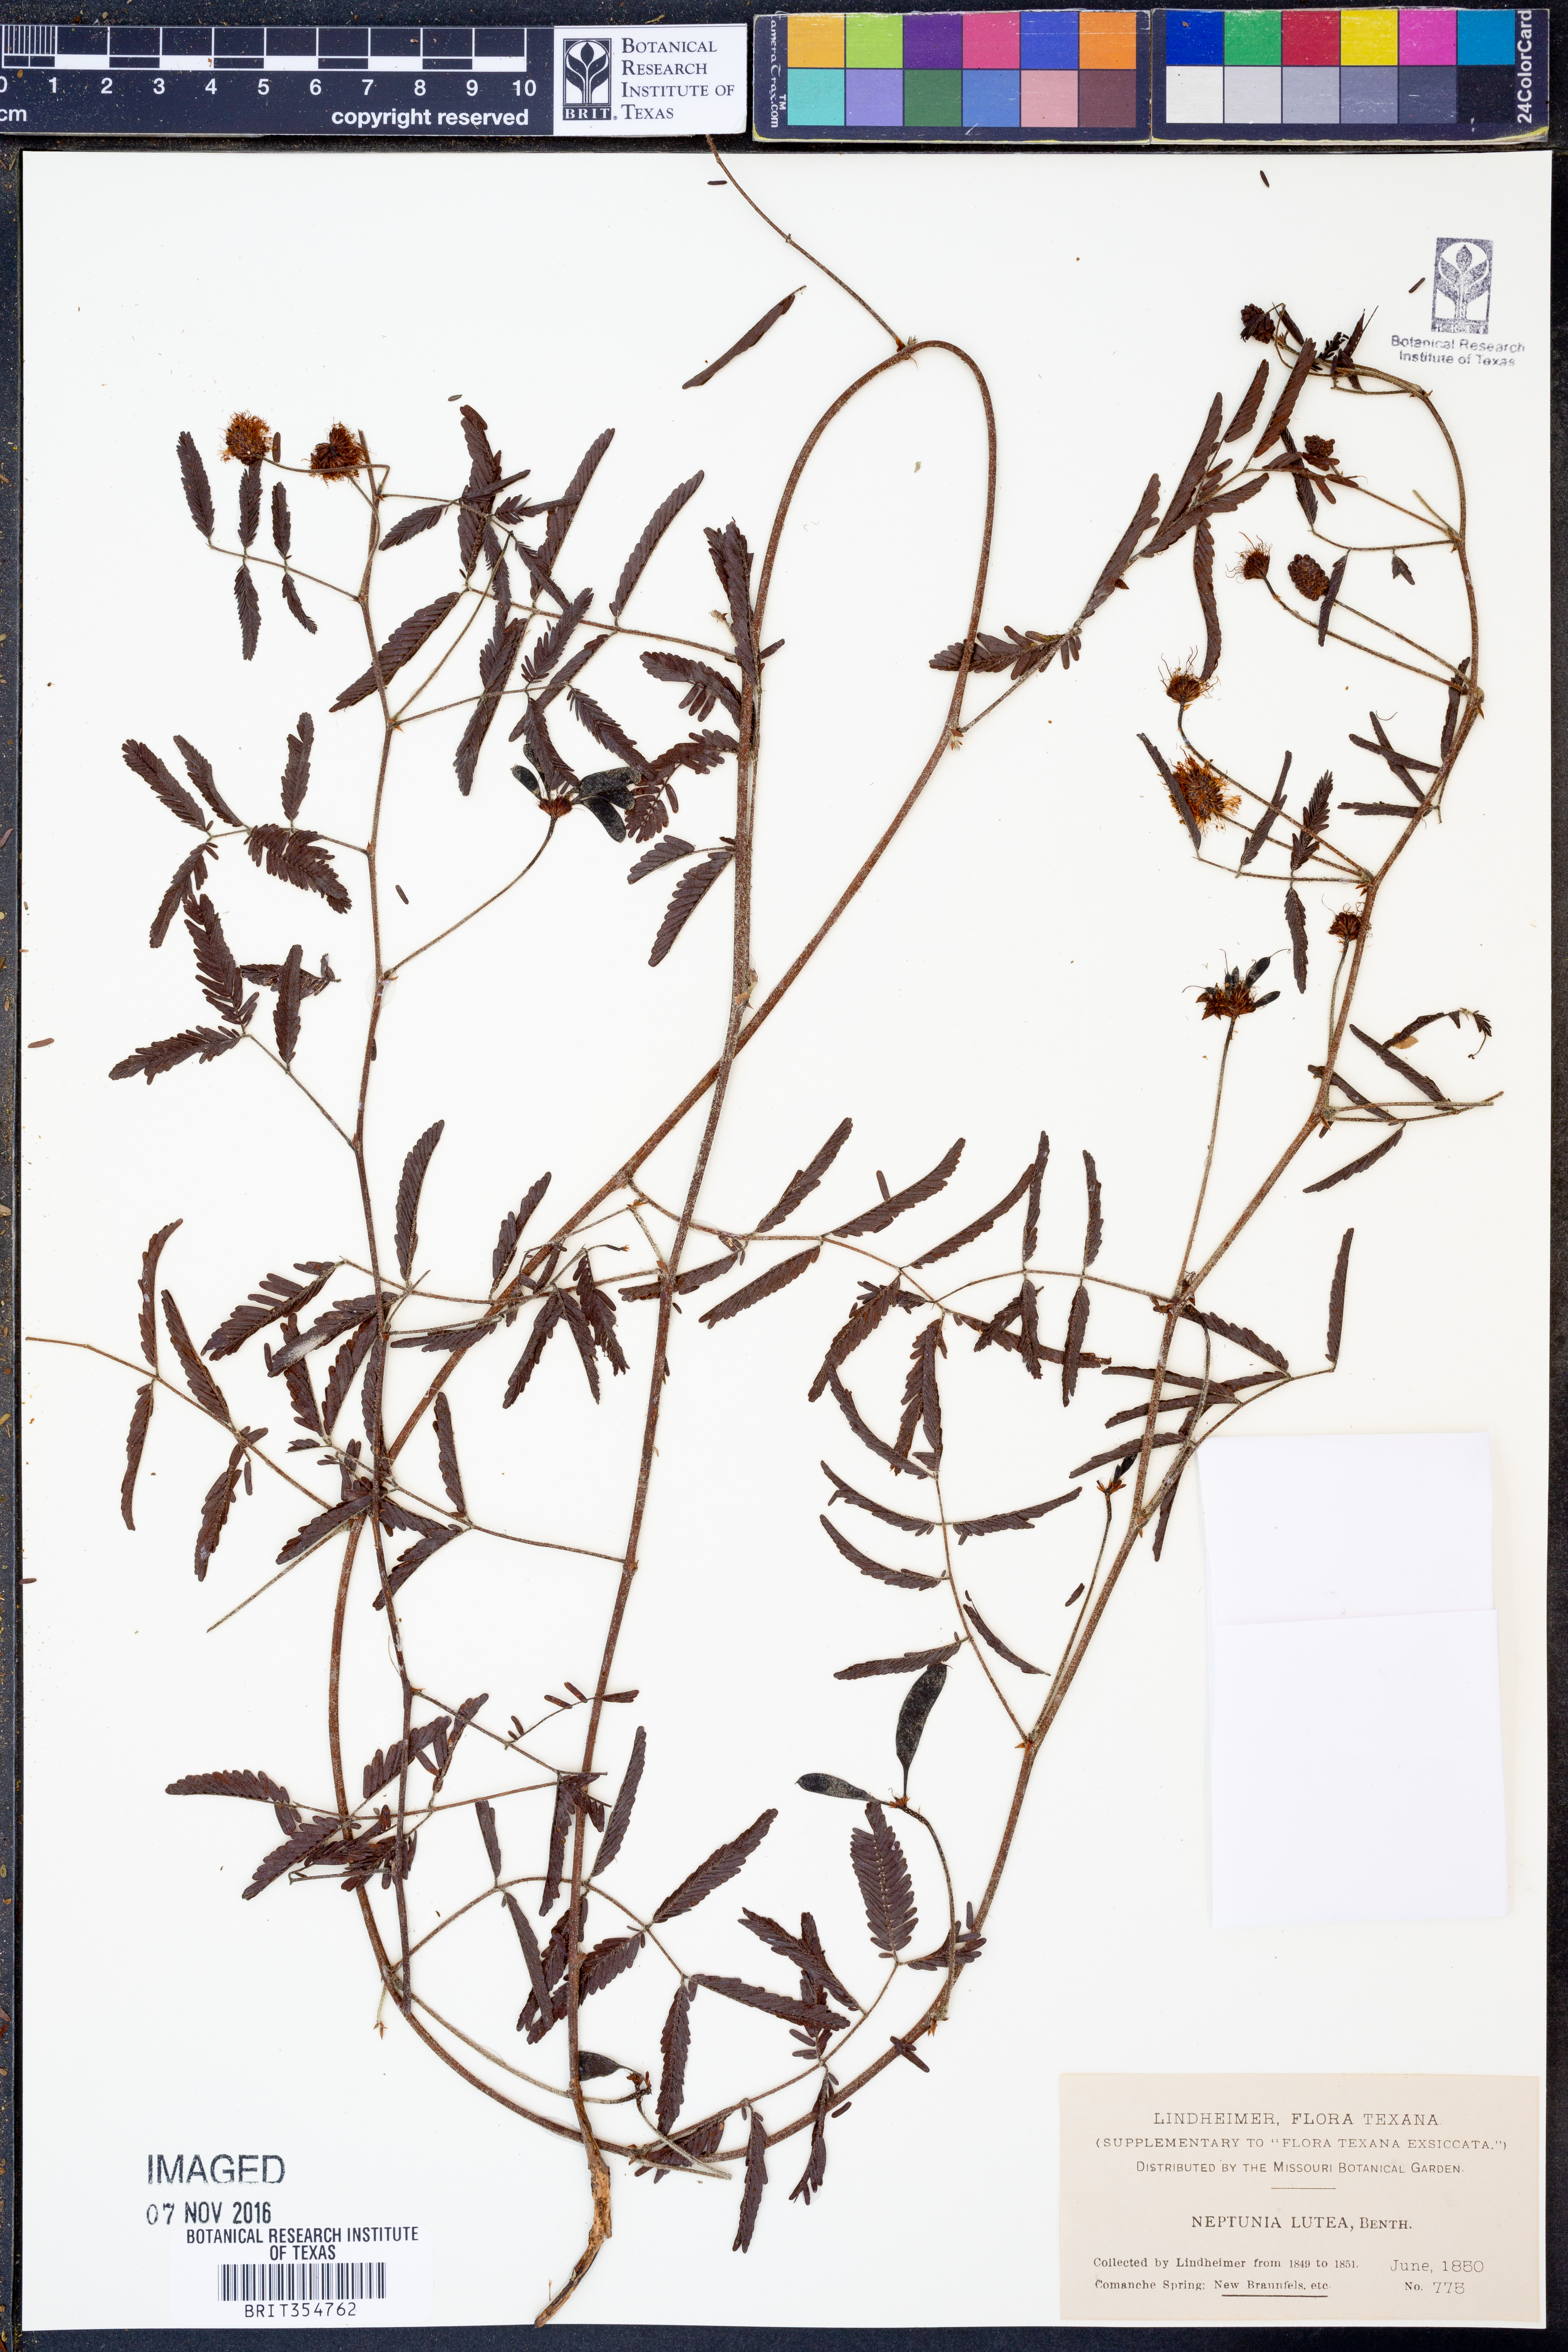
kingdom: Plantae
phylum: Tracheophyta
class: Magnoliopsida
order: Fabales
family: Fabaceae
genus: Neptunia
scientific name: Neptunia lutea
